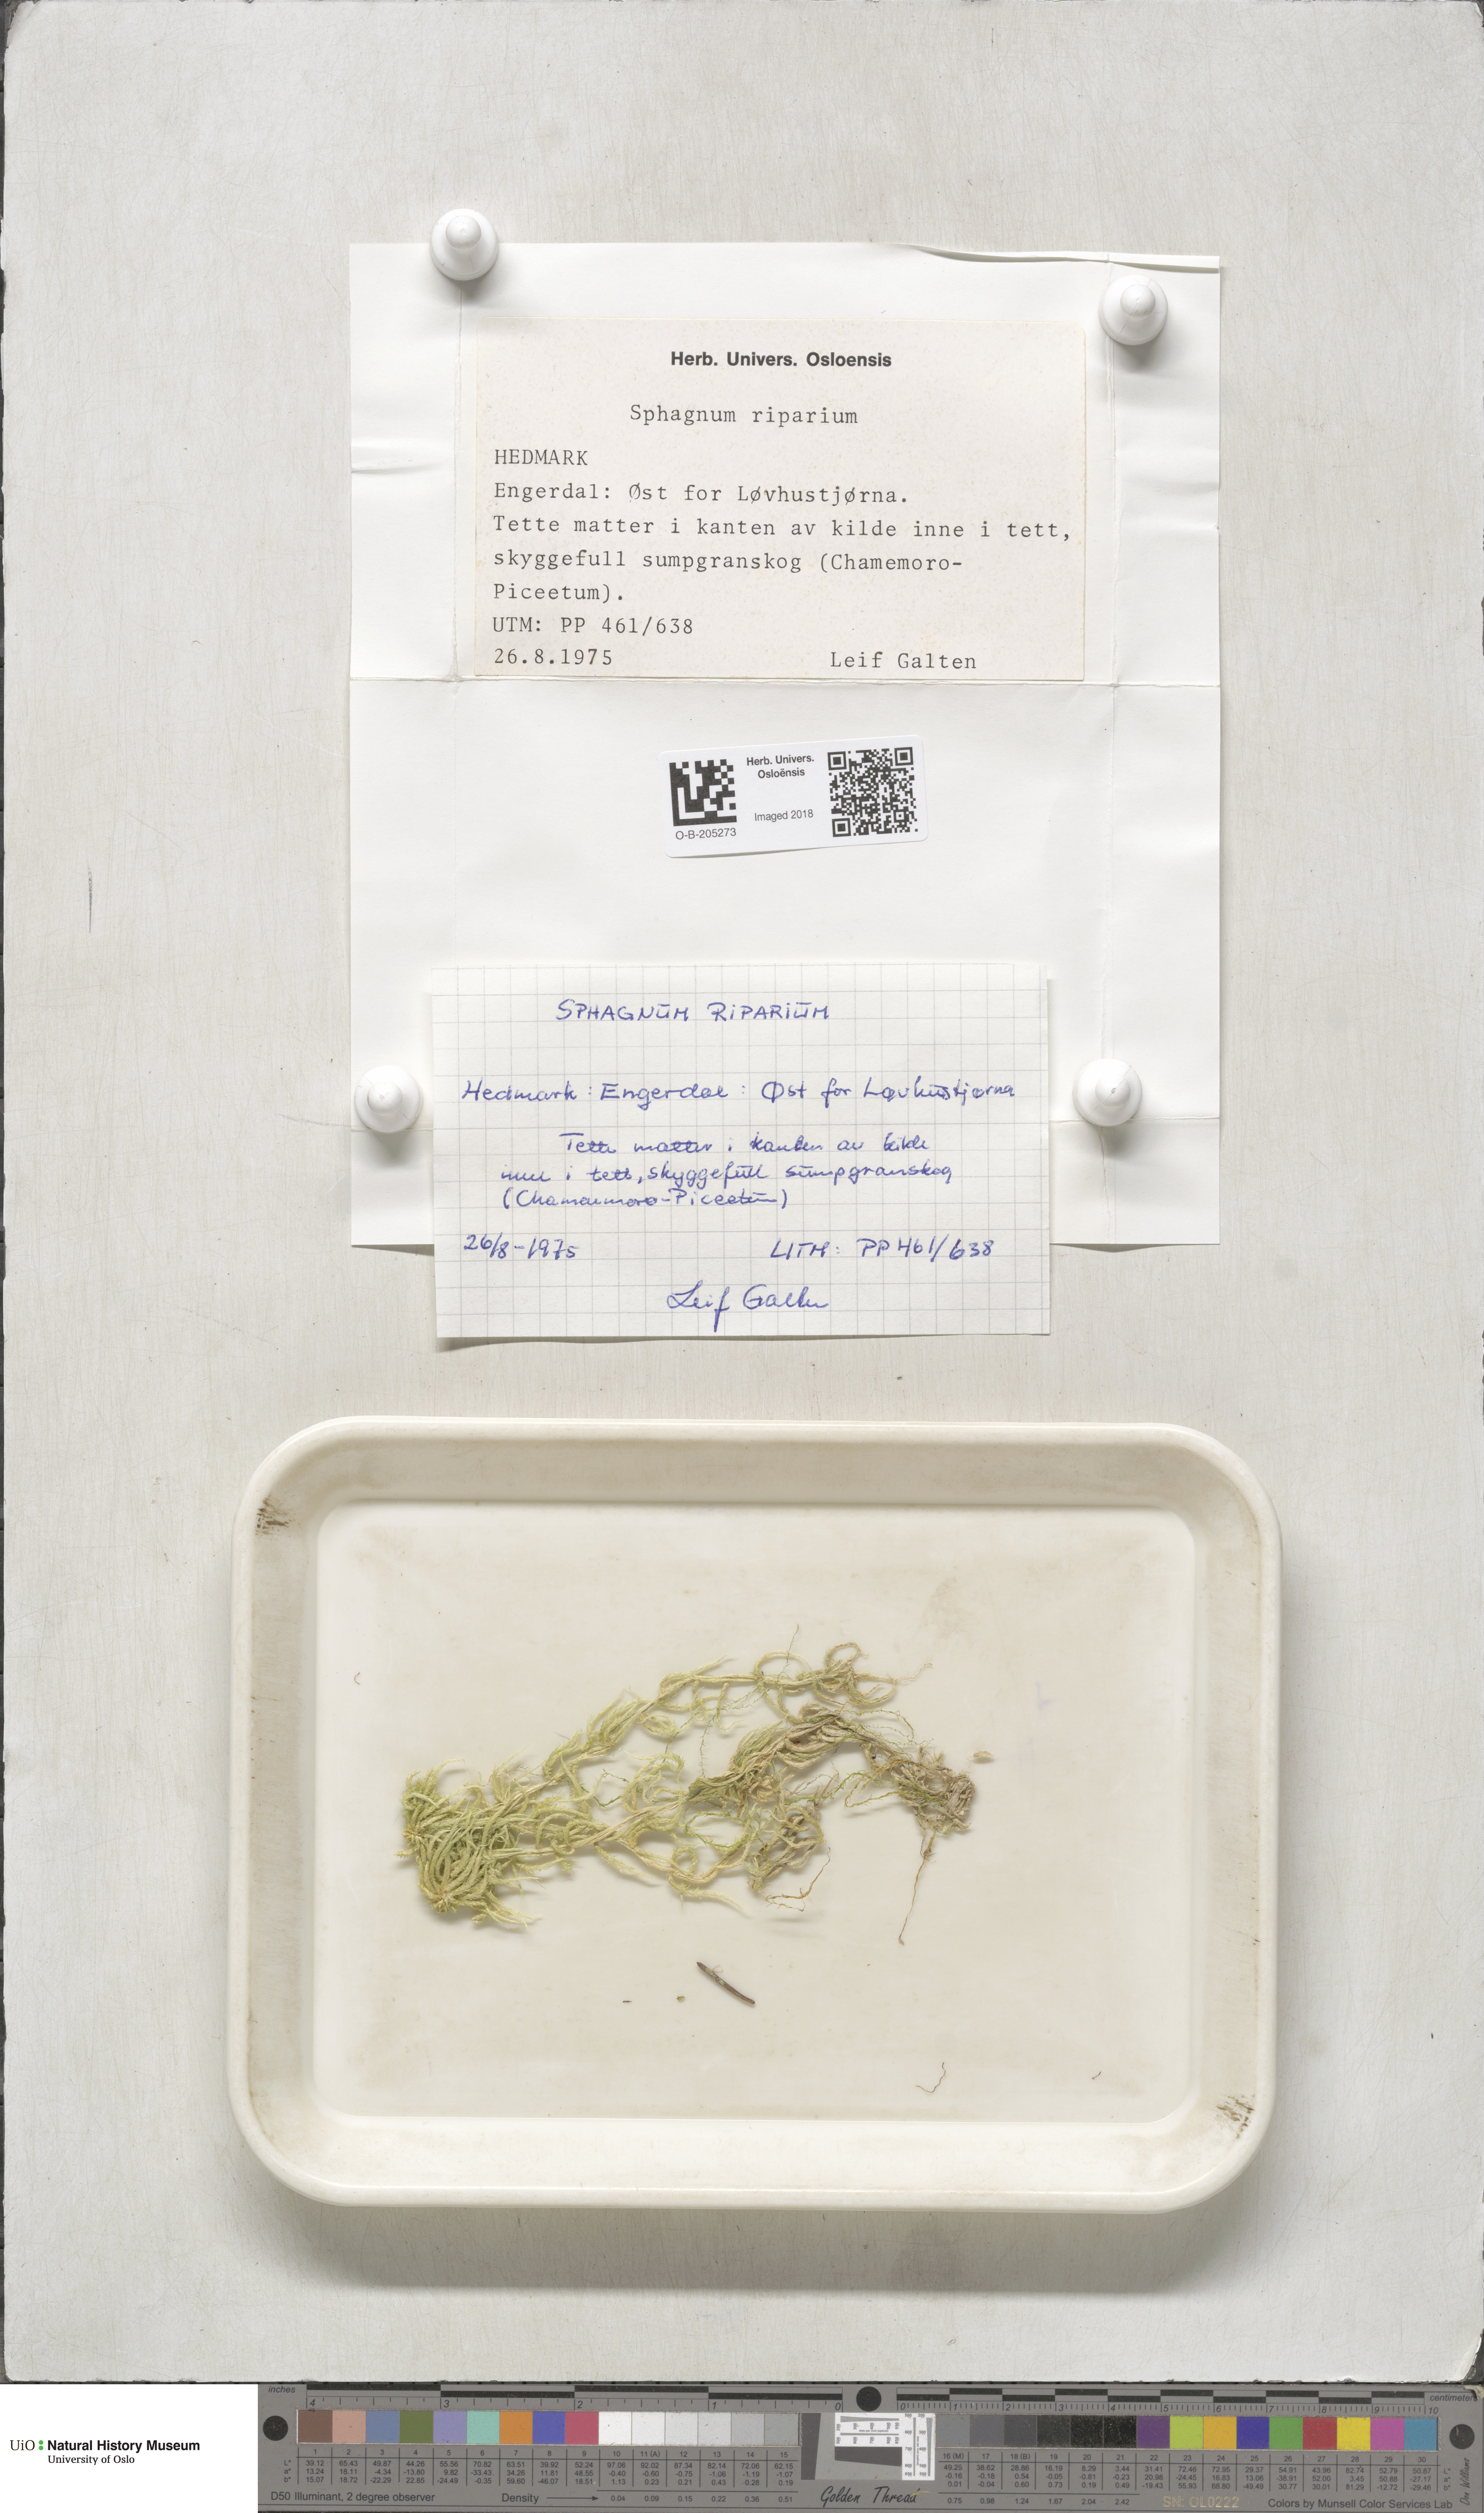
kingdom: Plantae
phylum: Bryophyta
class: Sphagnopsida
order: Sphagnales
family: Sphagnaceae
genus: Sphagnum
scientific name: Sphagnum riparium
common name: Streamside peat moss
